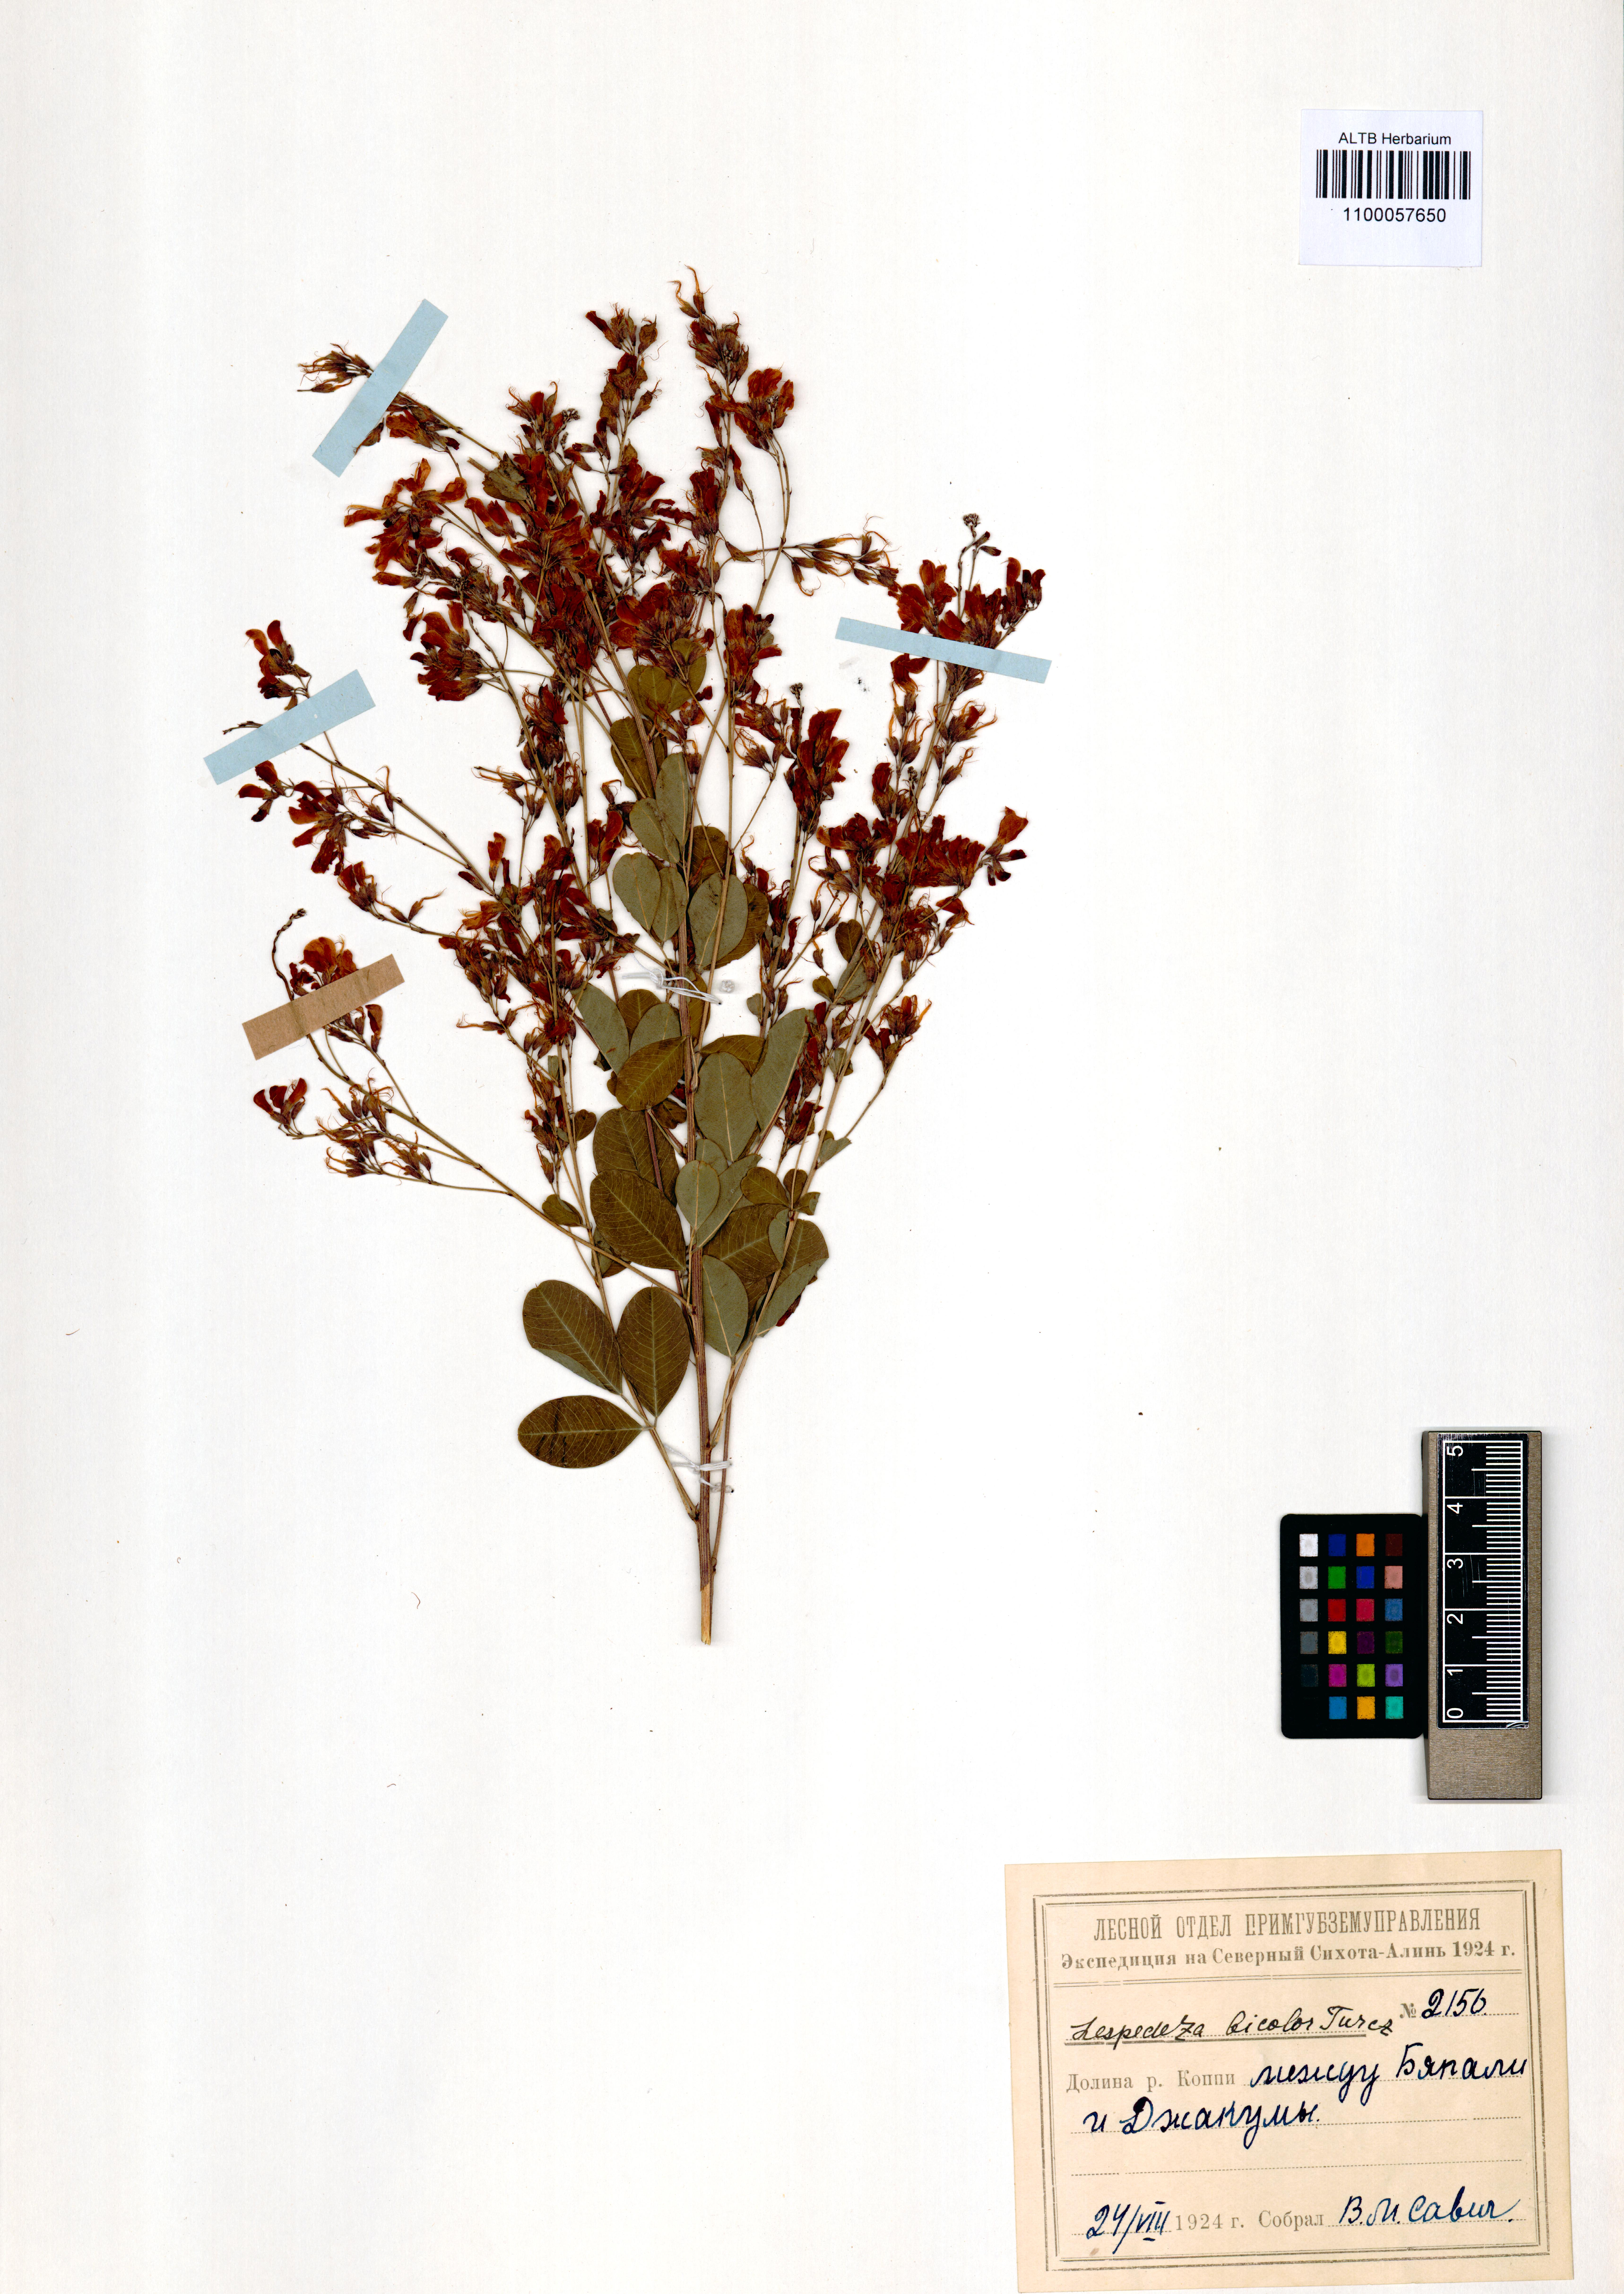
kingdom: Plantae
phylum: Tracheophyta
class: Magnoliopsida
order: Fabales
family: Fabaceae
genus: Lespedeza
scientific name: Lespedeza bicolor
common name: Shrub lespedeza
